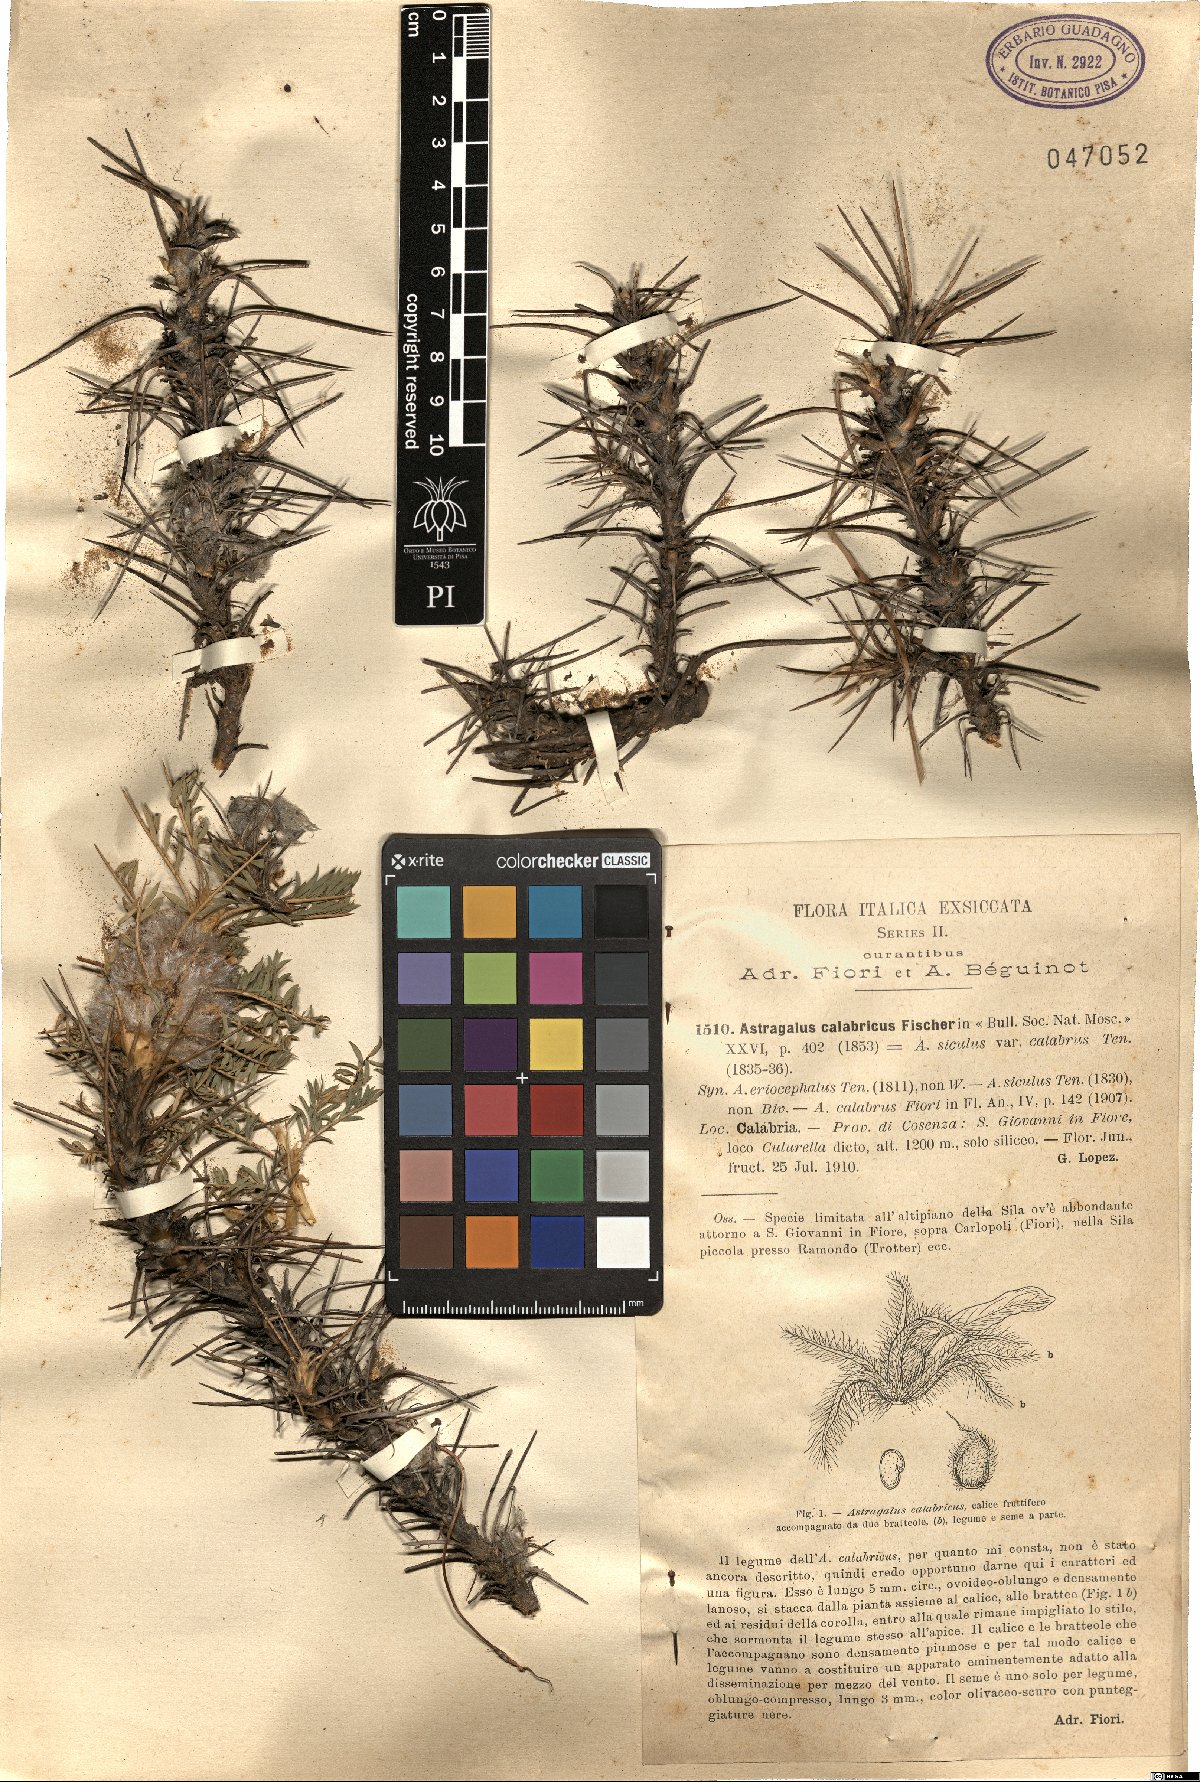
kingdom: Plantae
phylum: Tracheophyta
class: Magnoliopsida
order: Fabales
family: Fabaceae
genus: Astragalus
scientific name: Astragalus parnassi
